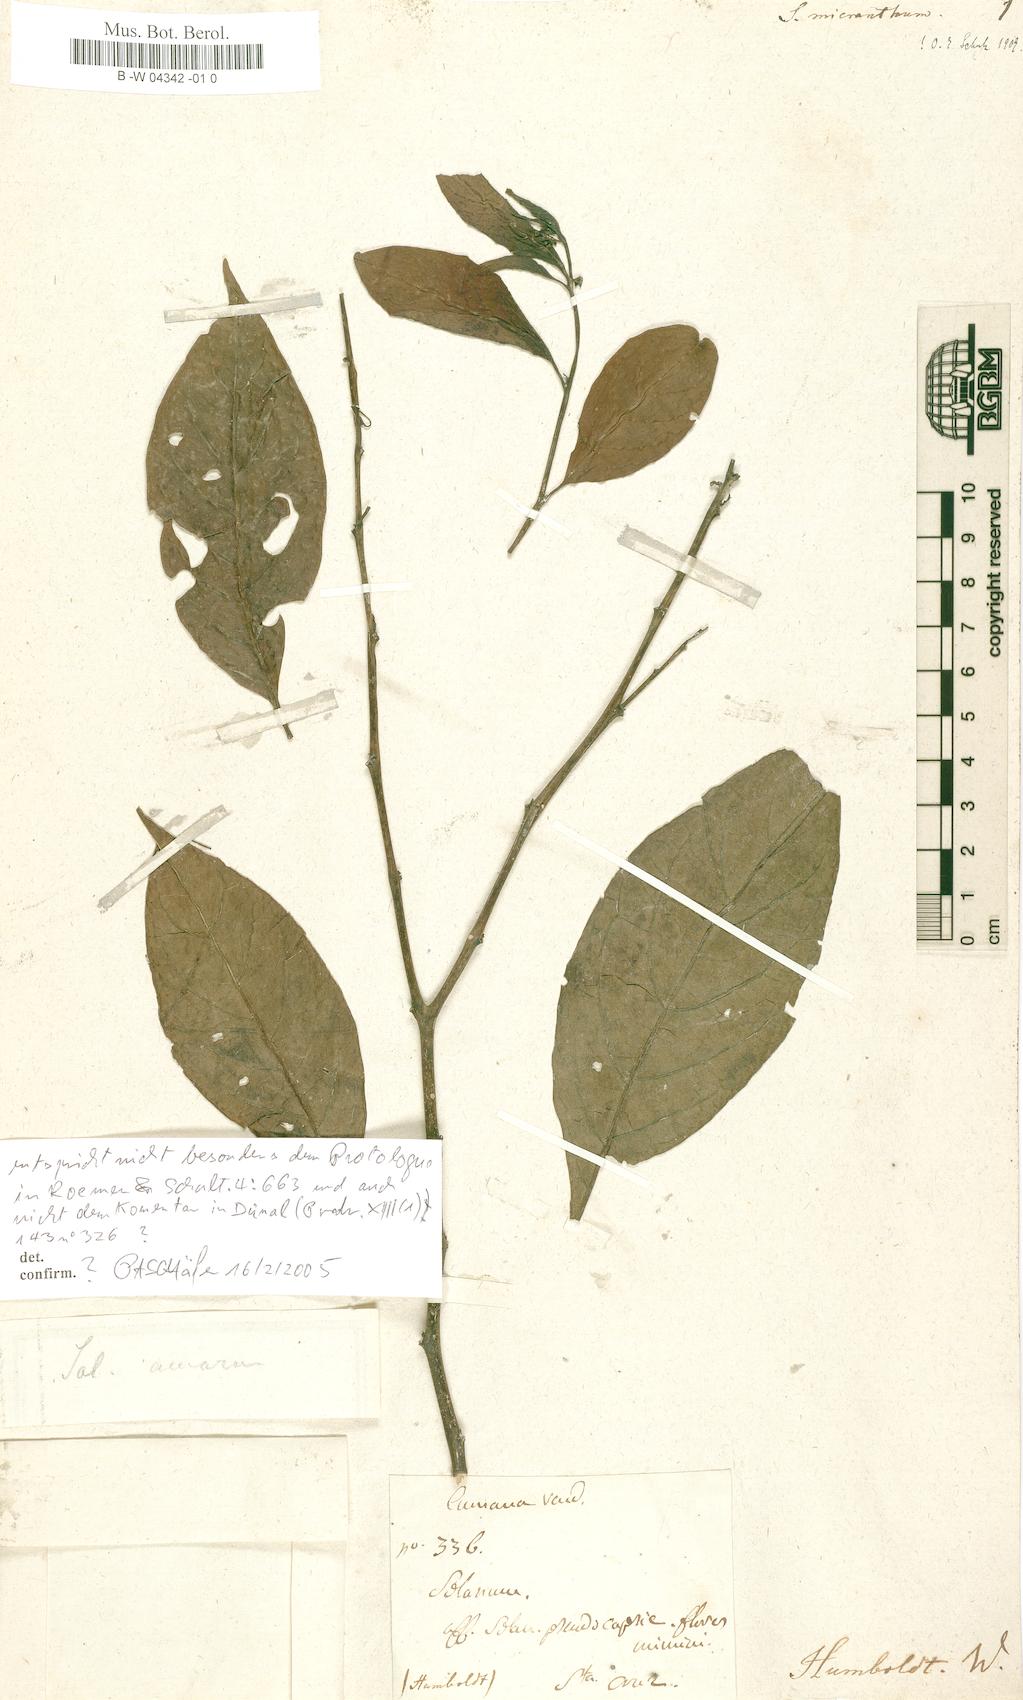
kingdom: Plantae
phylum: Tracheophyta
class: Magnoliopsida
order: Solanales
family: Solanaceae
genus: Solanum
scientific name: Solanum nudum
